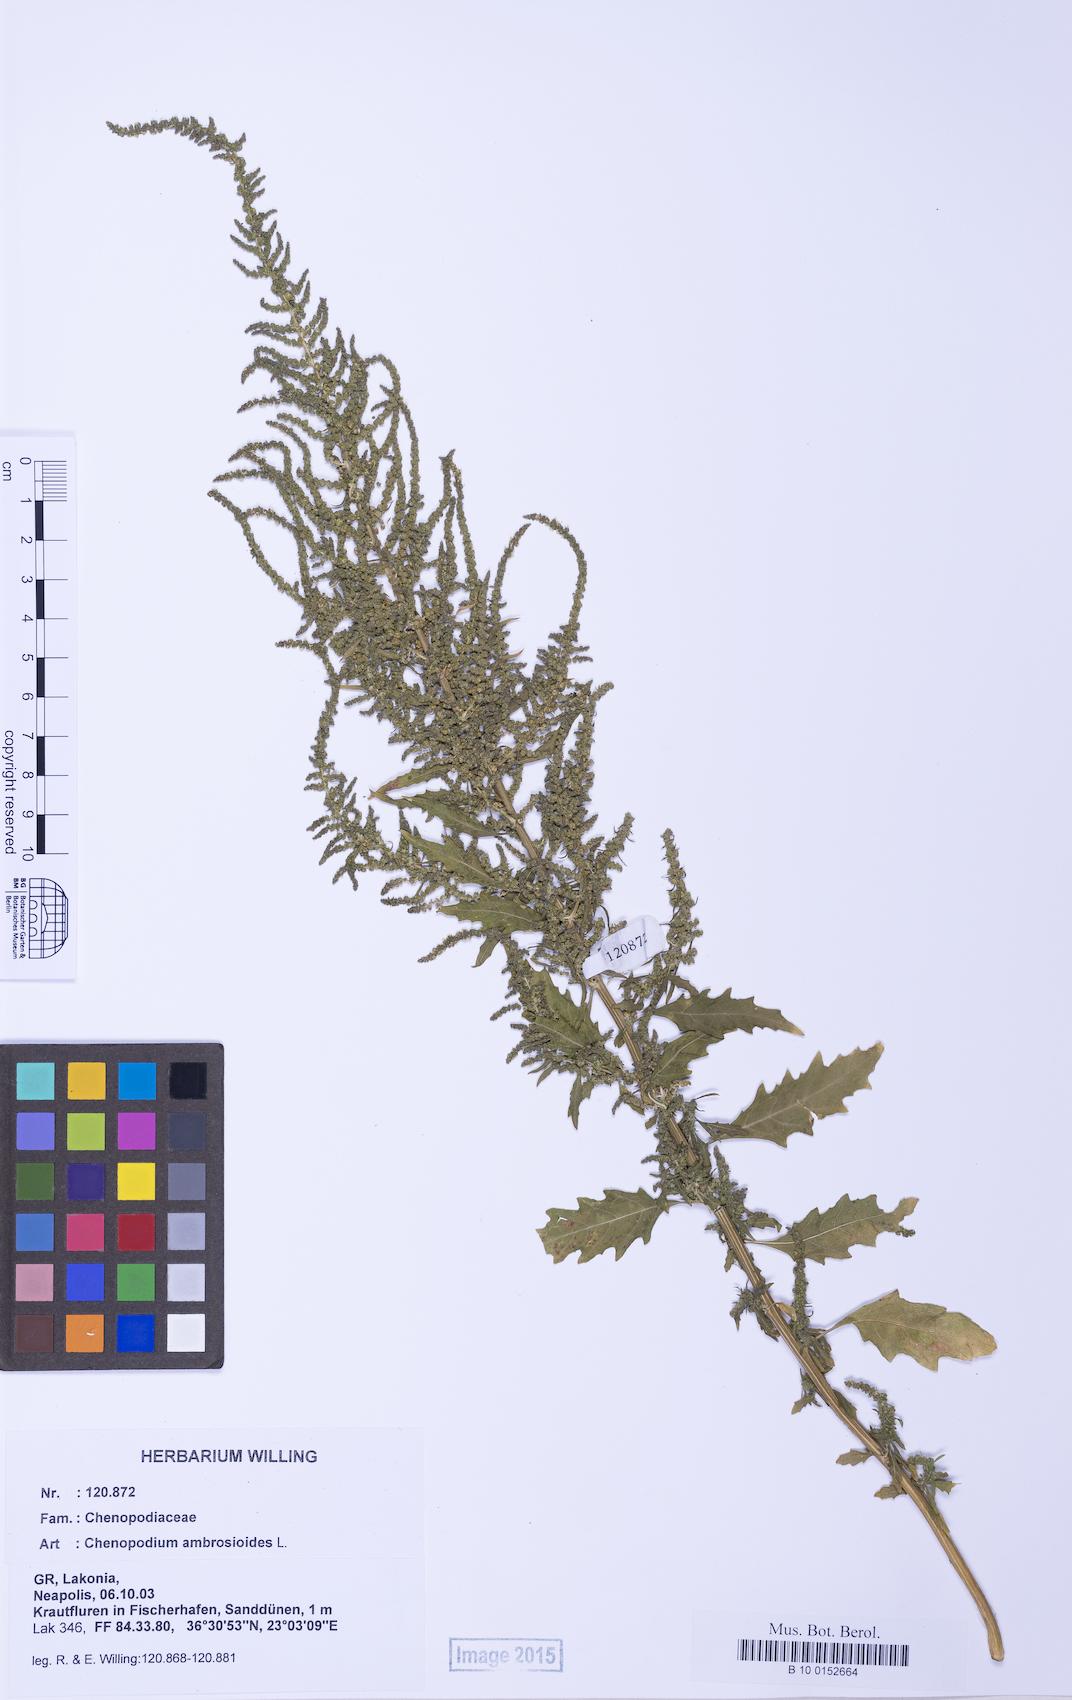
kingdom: Plantae
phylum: Tracheophyta
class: Magnoliopsida
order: Caryophyllales
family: Amaranthaceae
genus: Dysphania
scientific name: Dysphania ambrosioides
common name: Wormseed
